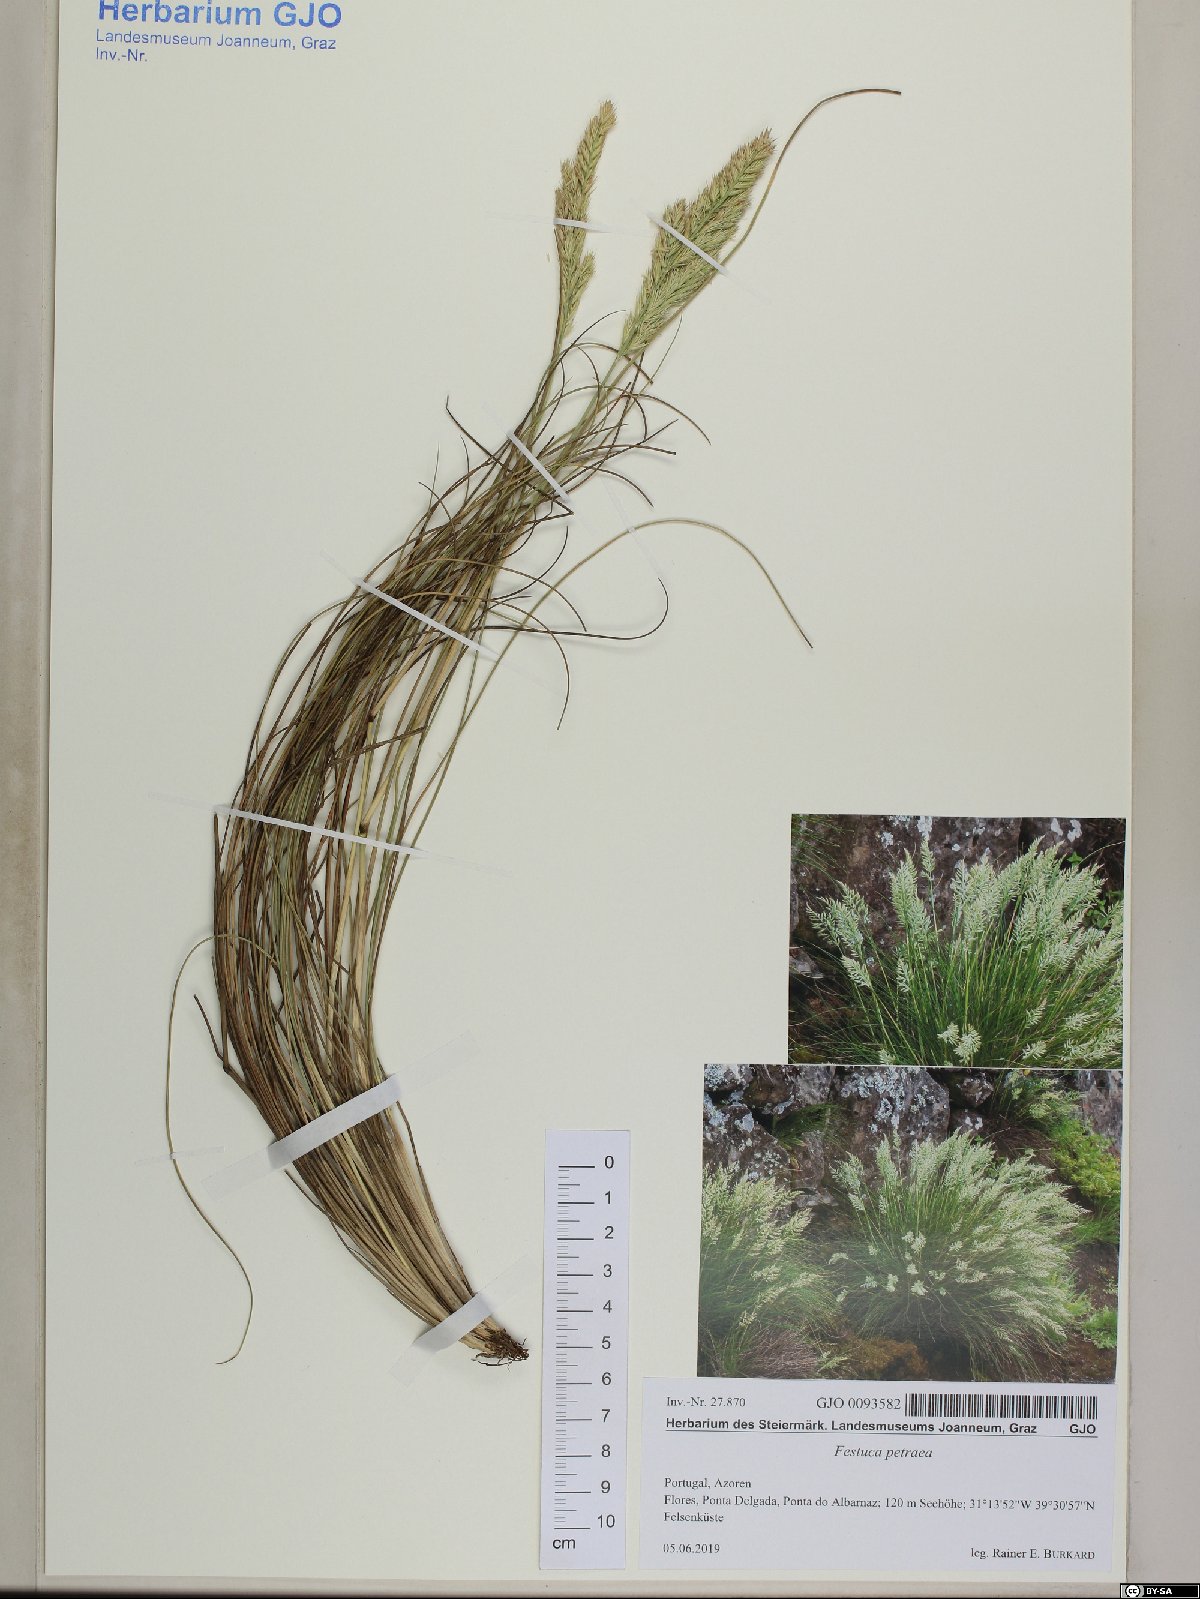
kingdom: Plantae
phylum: Tracheophyta
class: Liliopsida
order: Poales
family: Poaceae
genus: Festuca
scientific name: Festuca petraea
